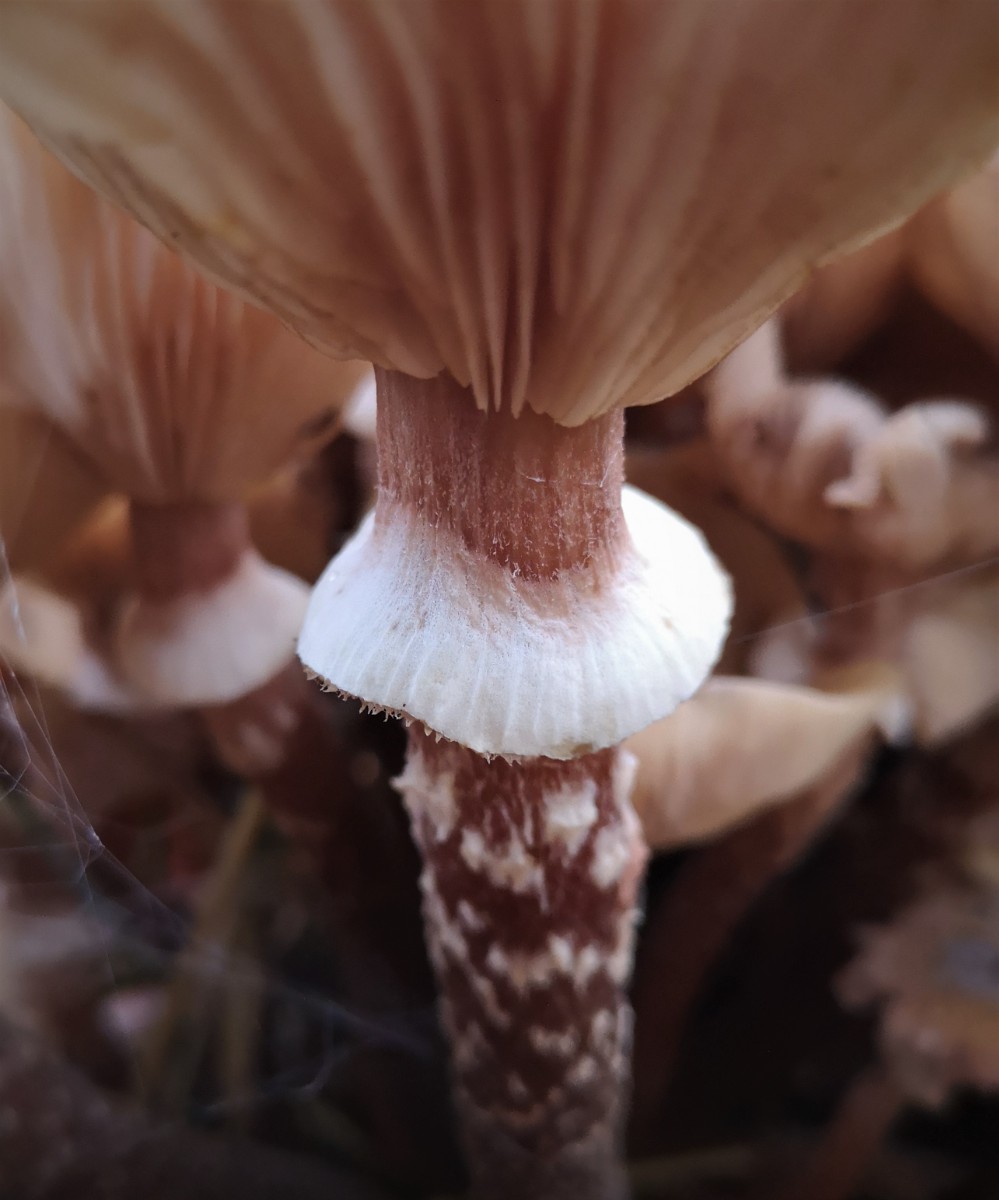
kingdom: Fungi
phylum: Basidiomycota
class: Agaricomycetes
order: Agaricales
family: Physalacriaceae
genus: Armillaria
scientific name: Armillaria mellea
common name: ægte honningsvamp
